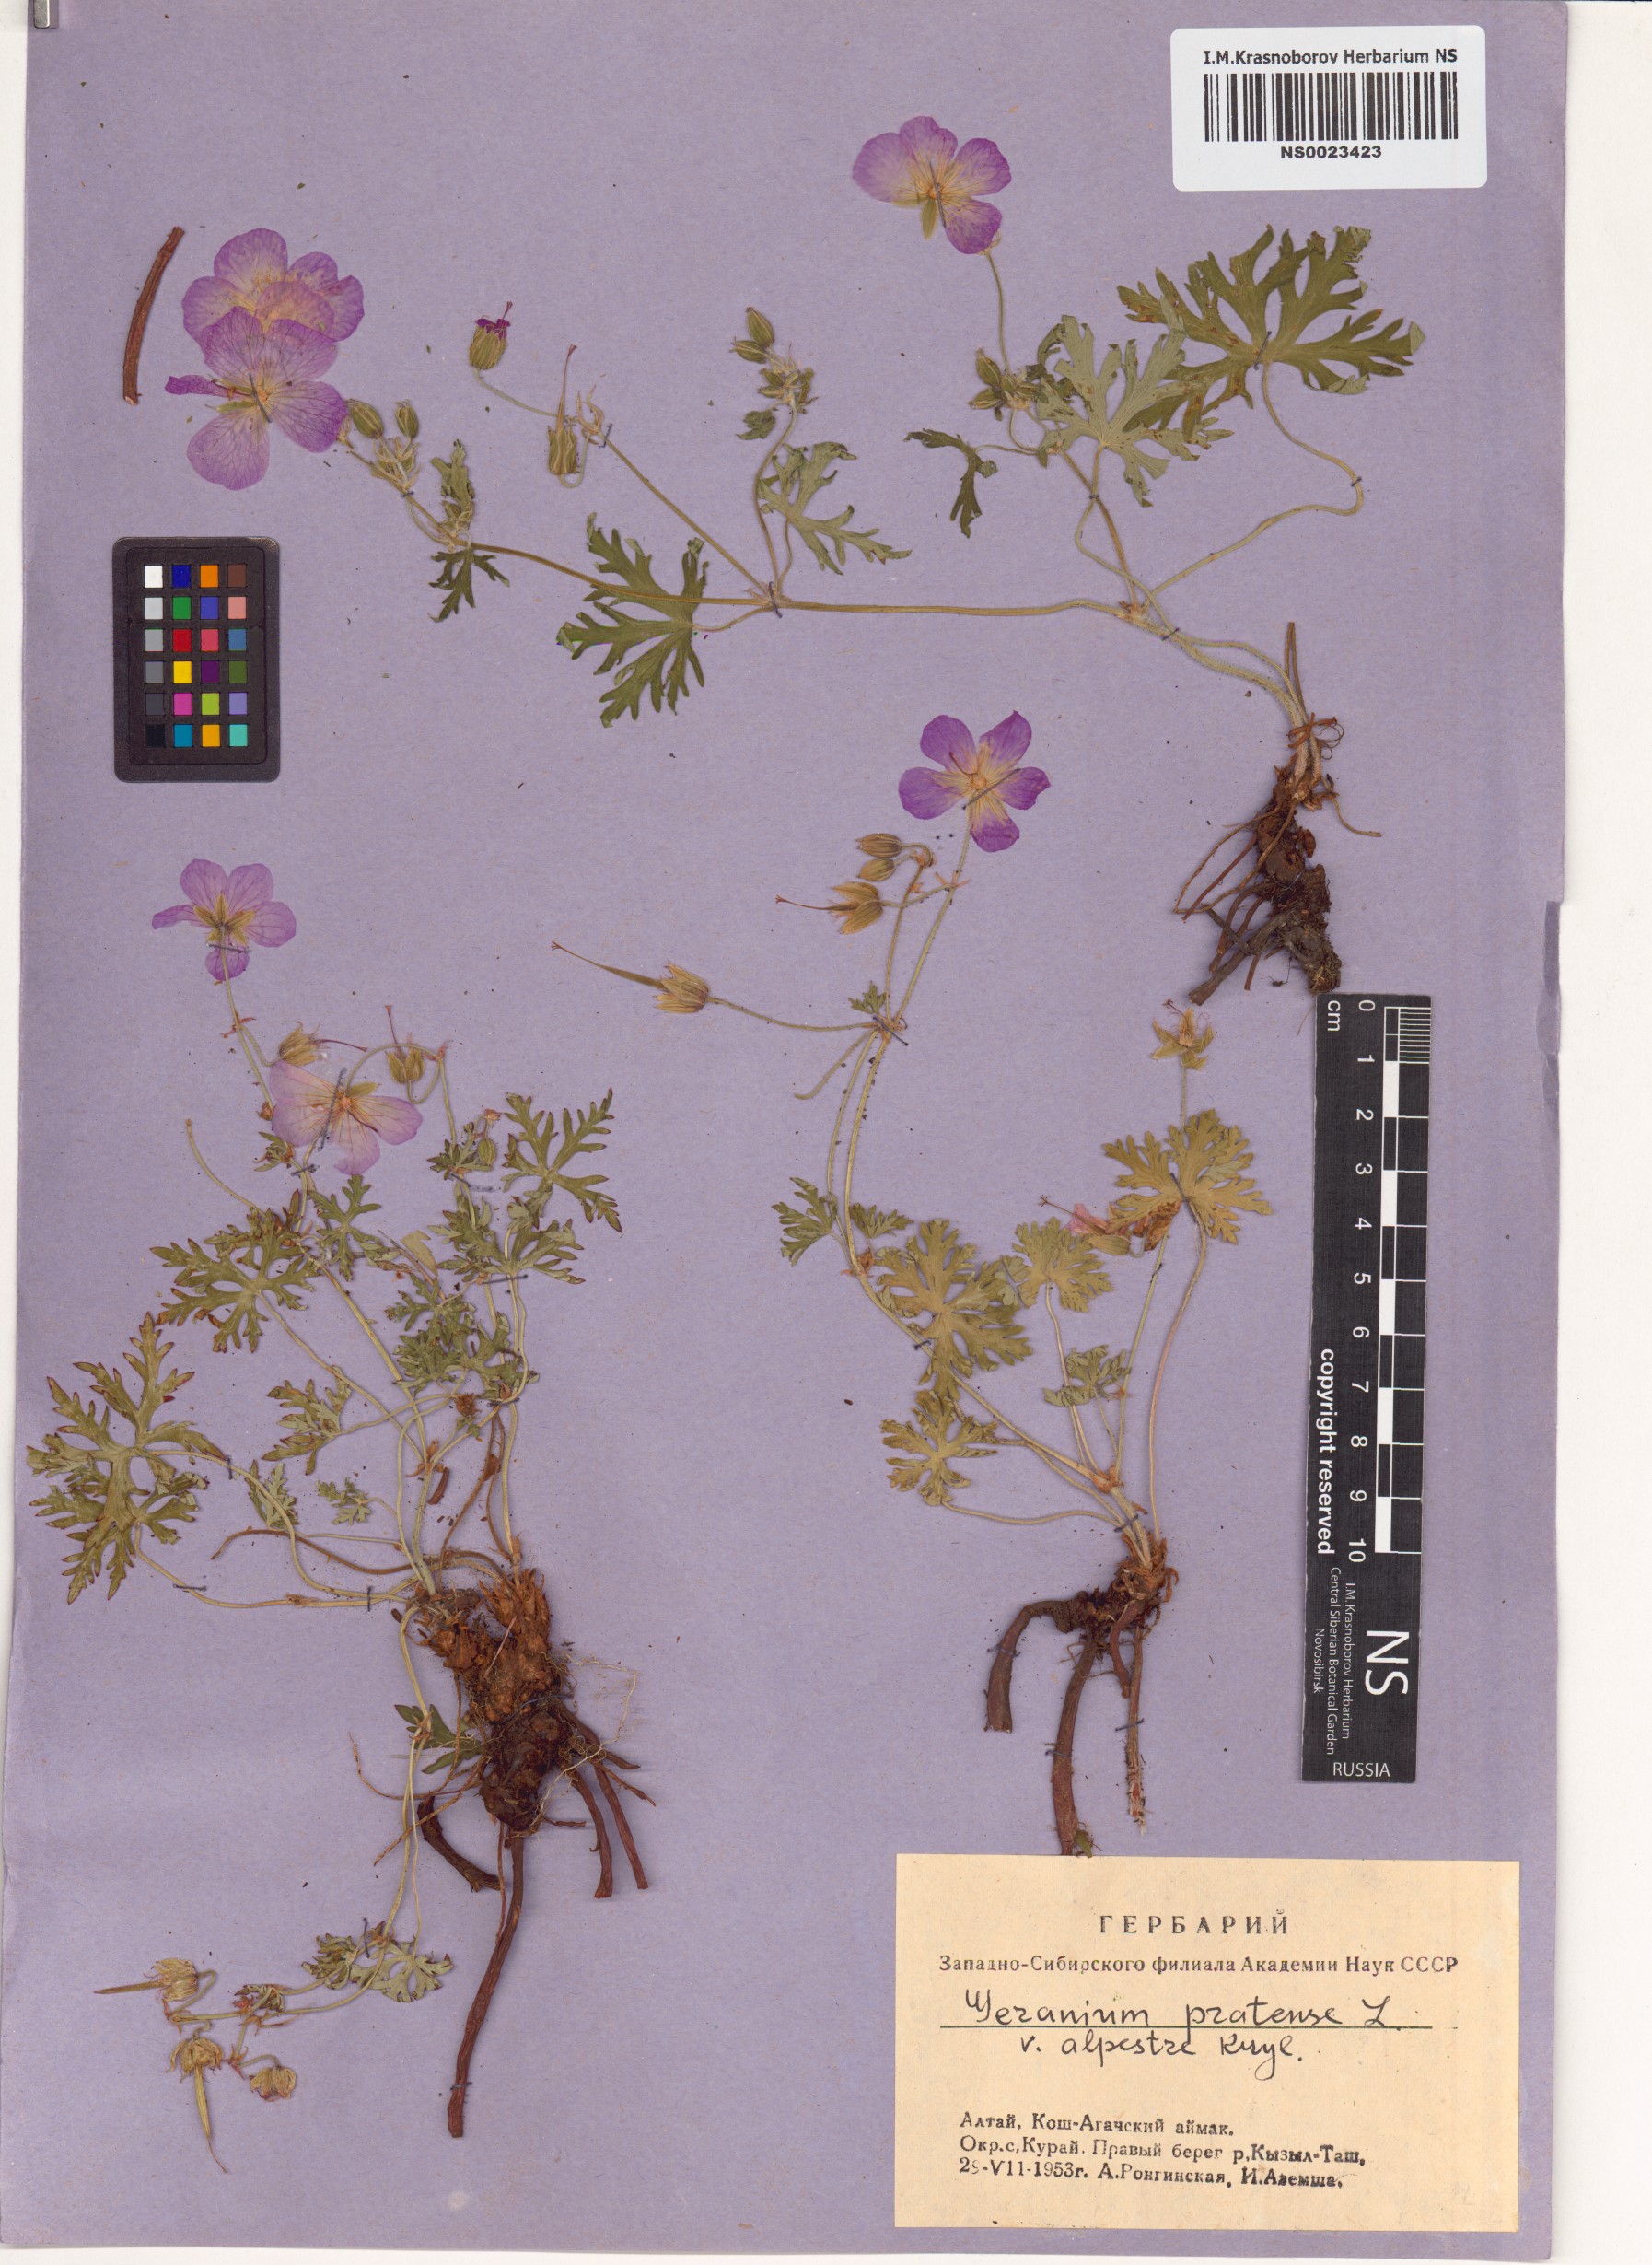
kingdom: Plantae
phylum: Tracheophyta
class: Magnoliopsida
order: Geraniales
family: Geraniaceae
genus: Geranium
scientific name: Geranium pratense
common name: Meadow crane's-bill
